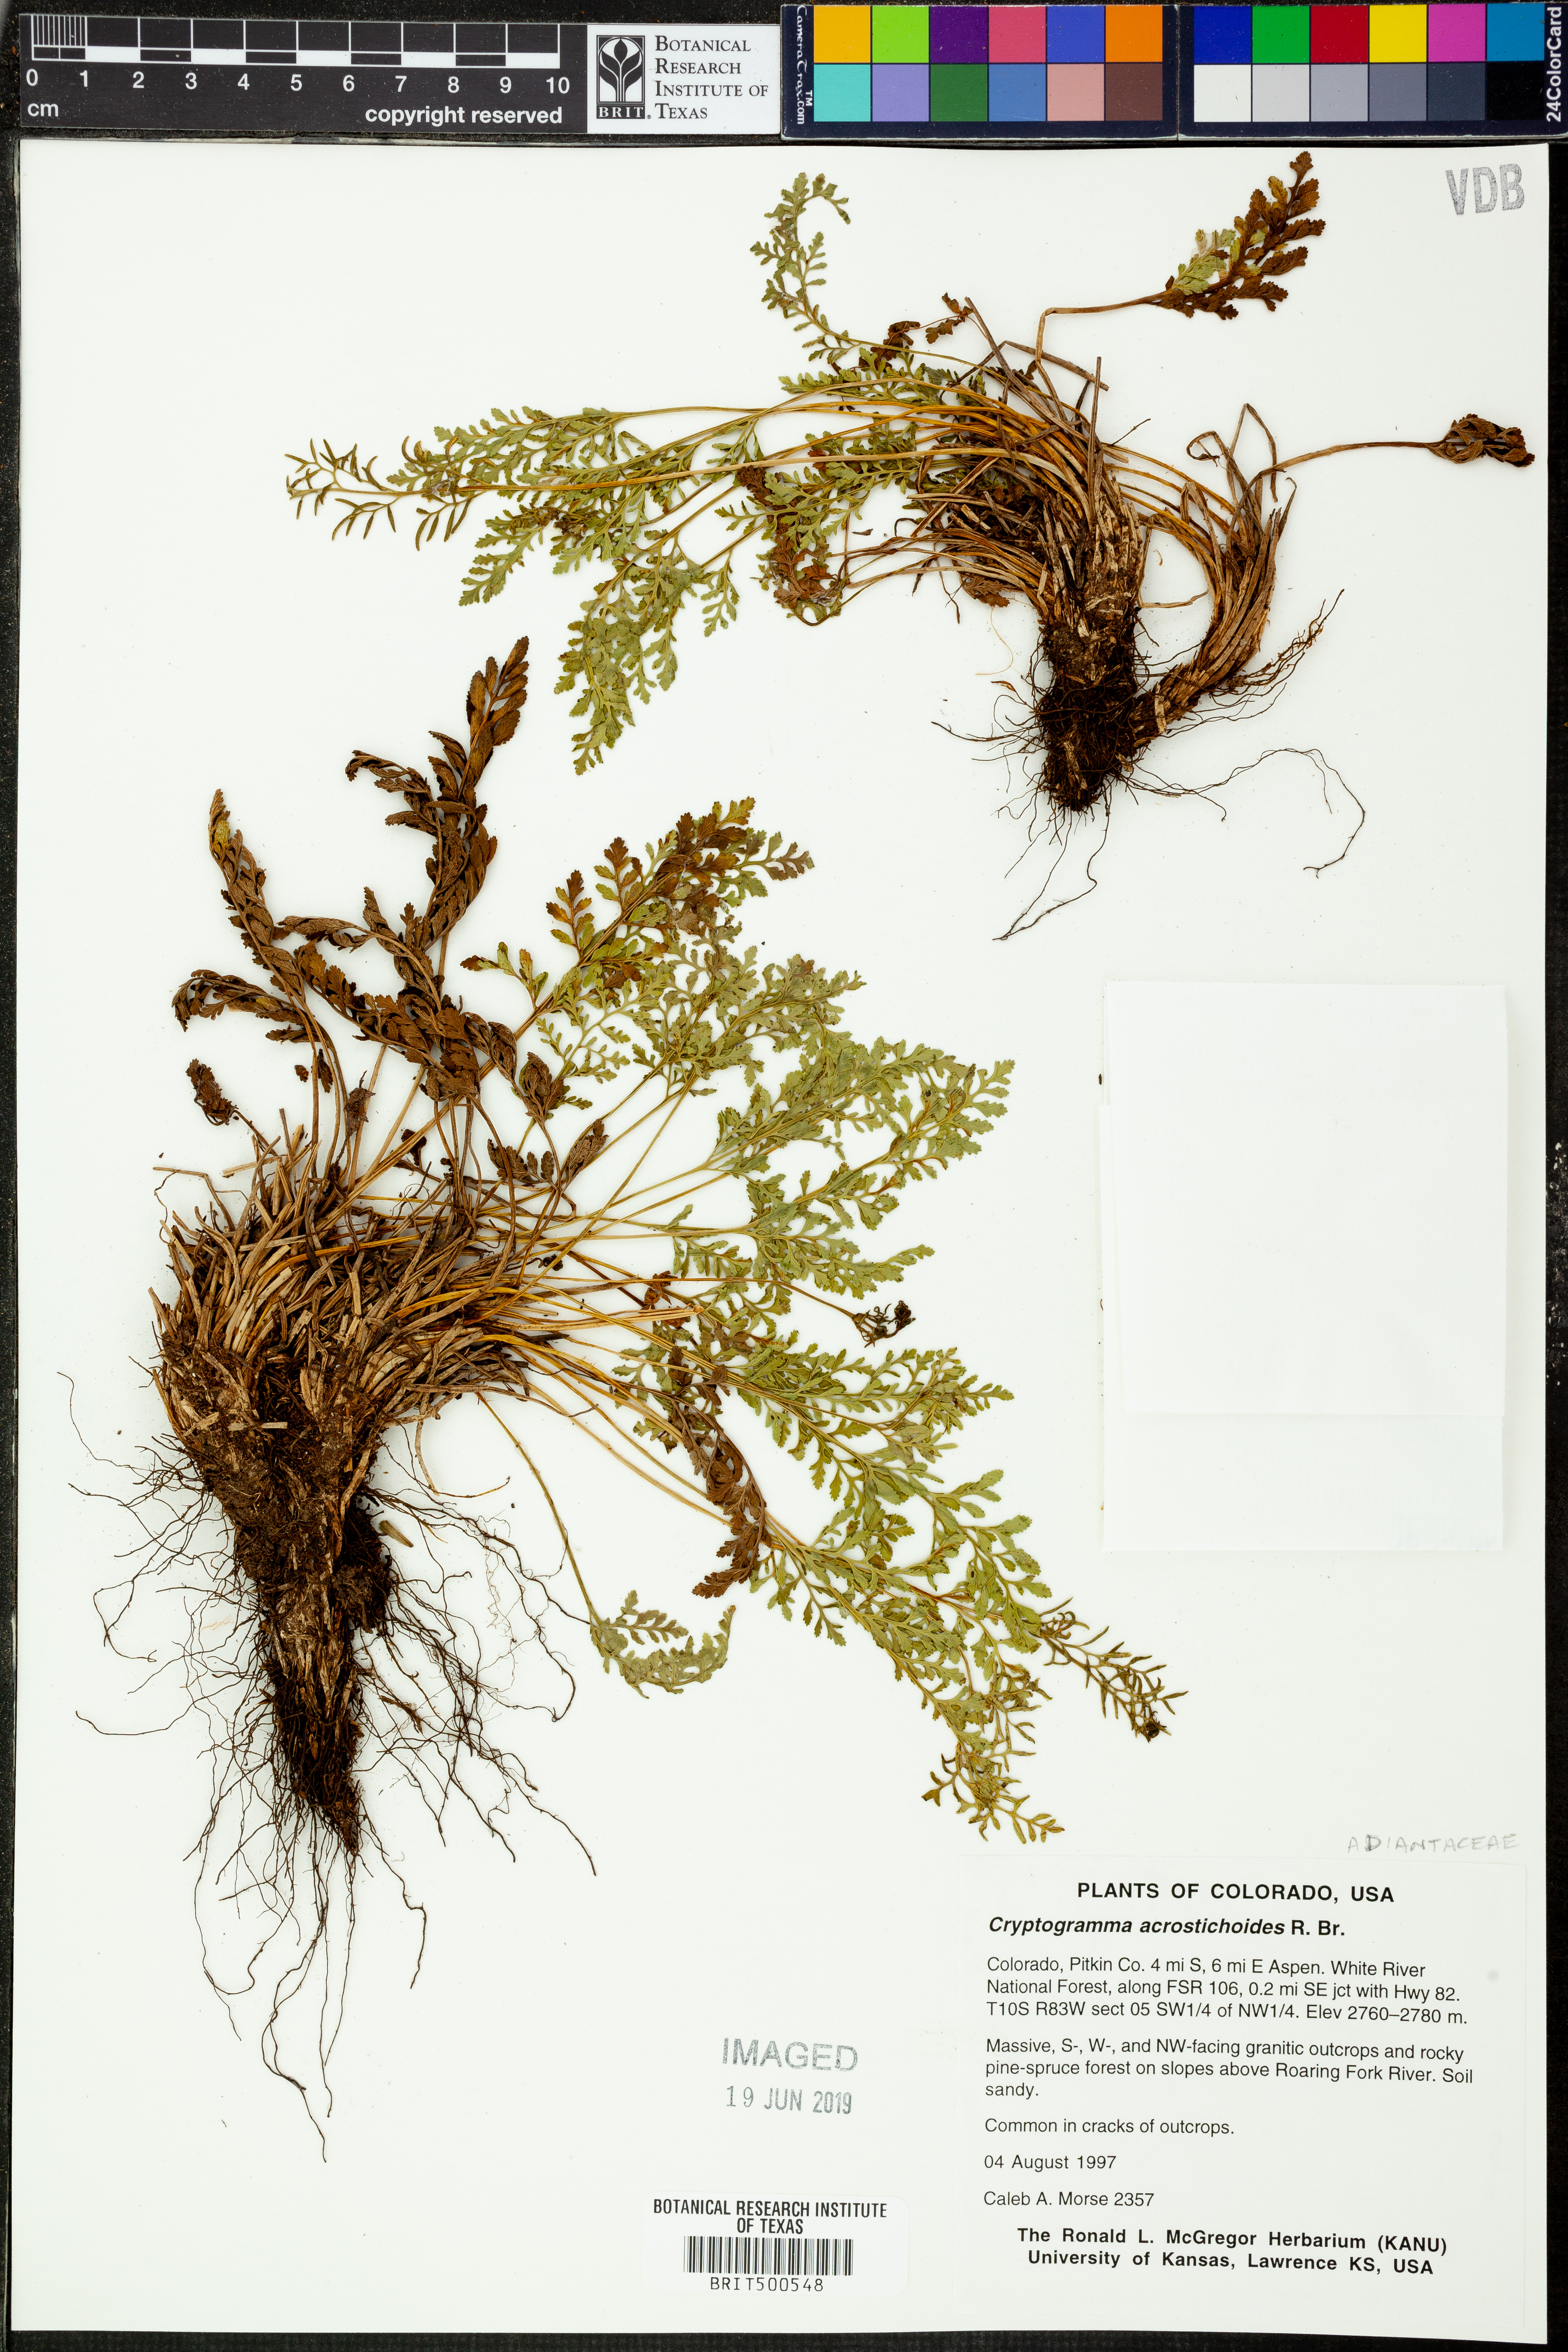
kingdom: Plantae
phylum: Tracheophyta
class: Polypodiopsida
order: Polypodiales
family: Pteridaceae
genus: Cryptogramma
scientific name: Cryptogramma acrostichoides
